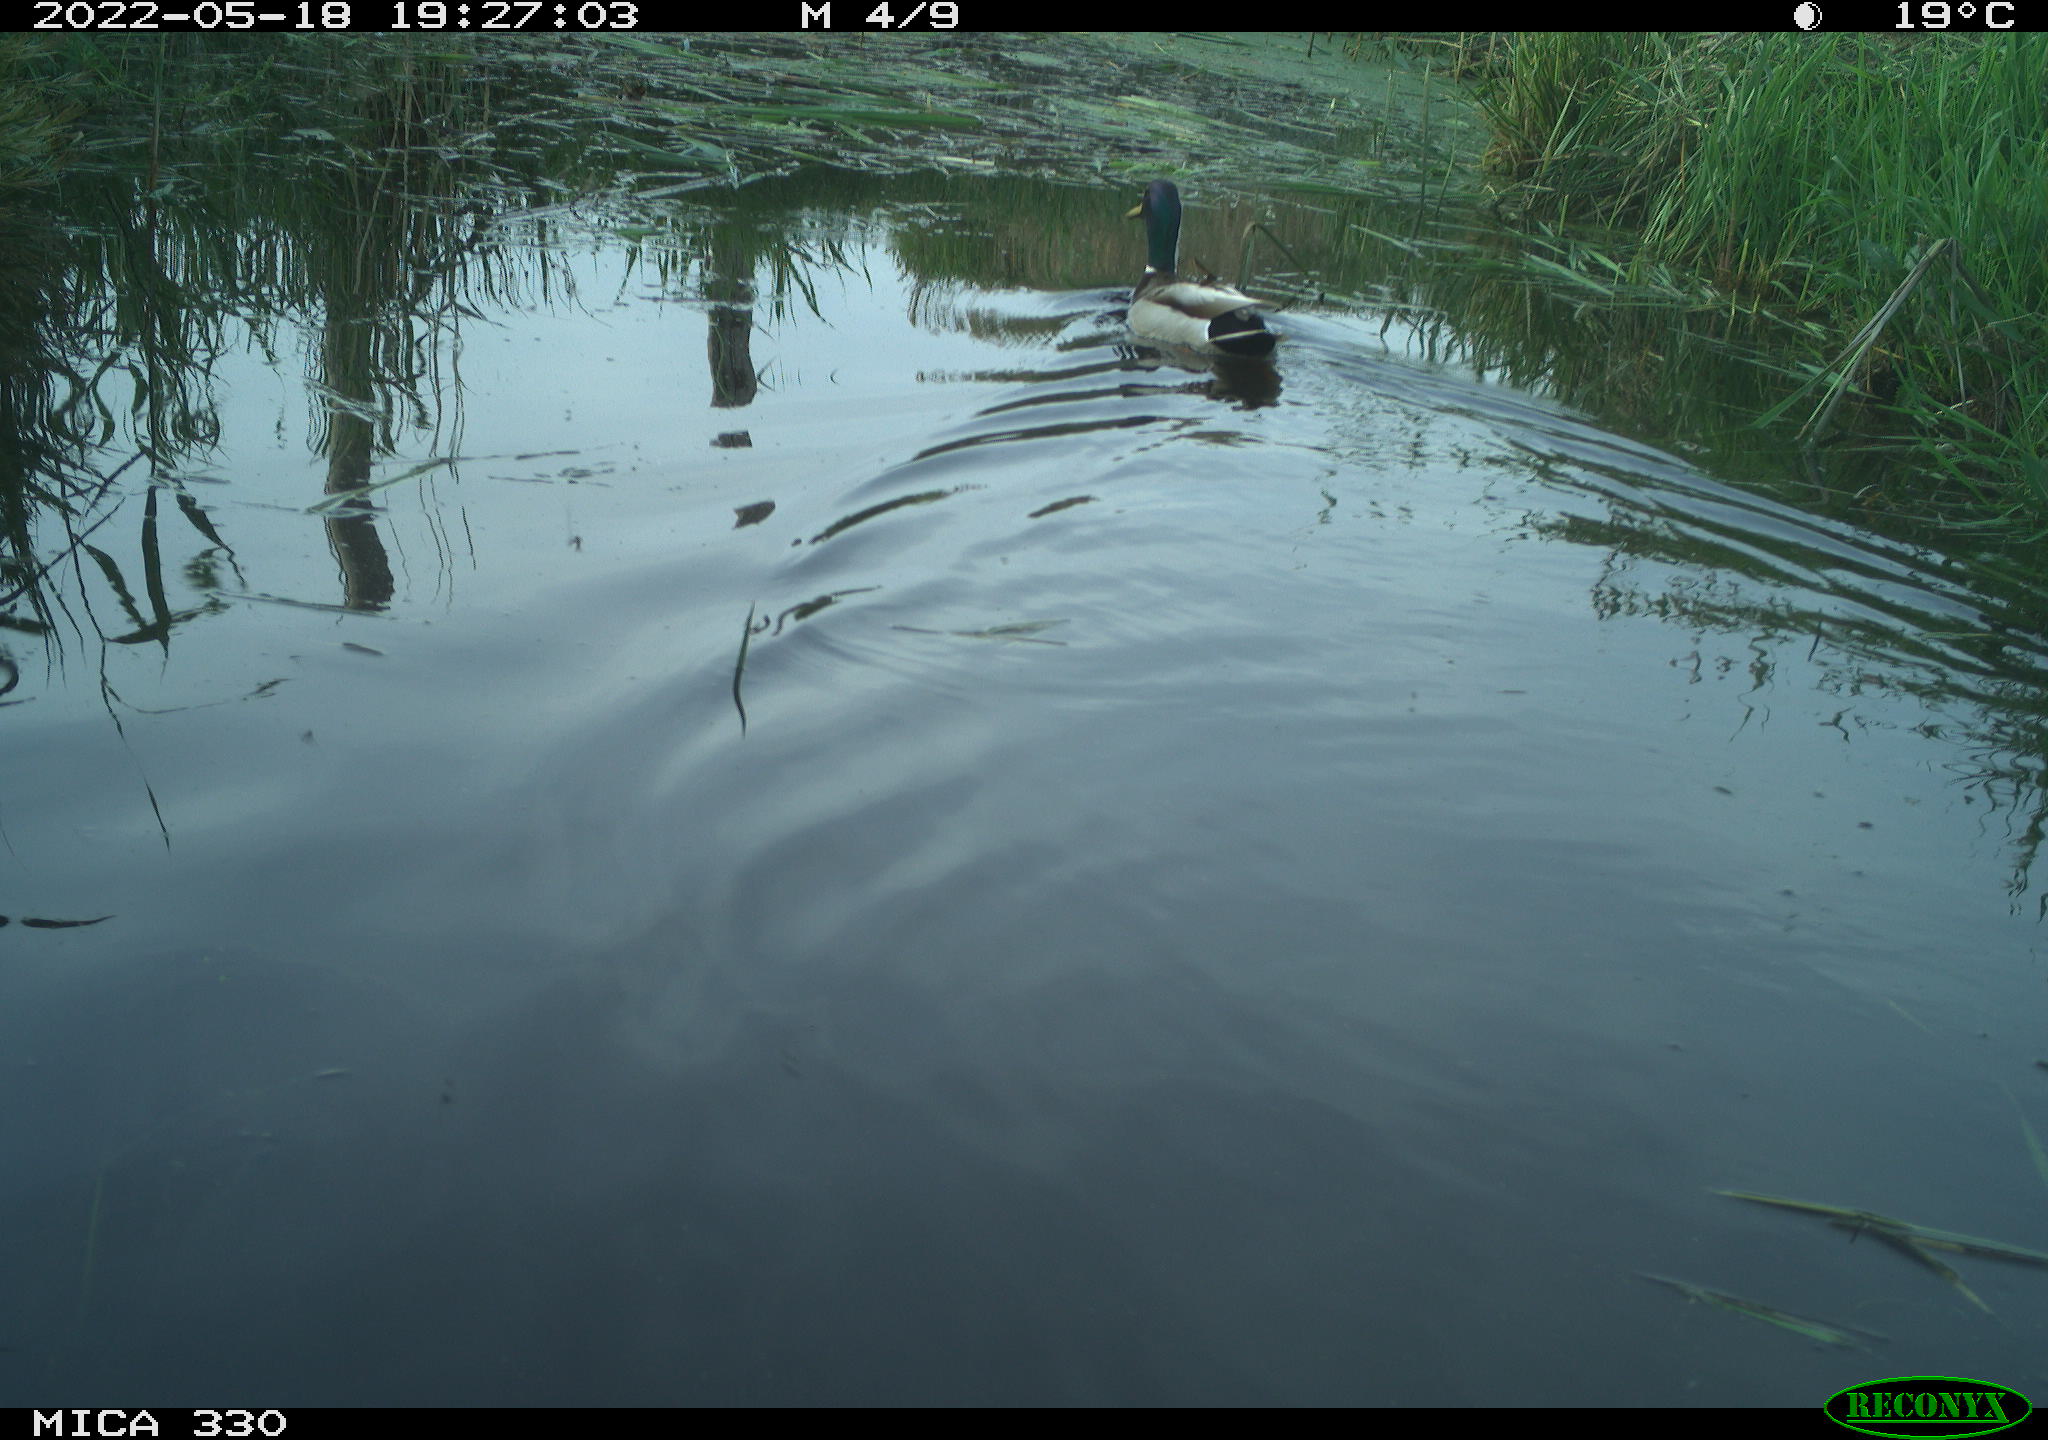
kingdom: Animalia
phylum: Chordata
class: Aves
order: Anseriformes
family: Anatidae
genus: Anas
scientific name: Anas platyrhynchos
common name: Mallard
